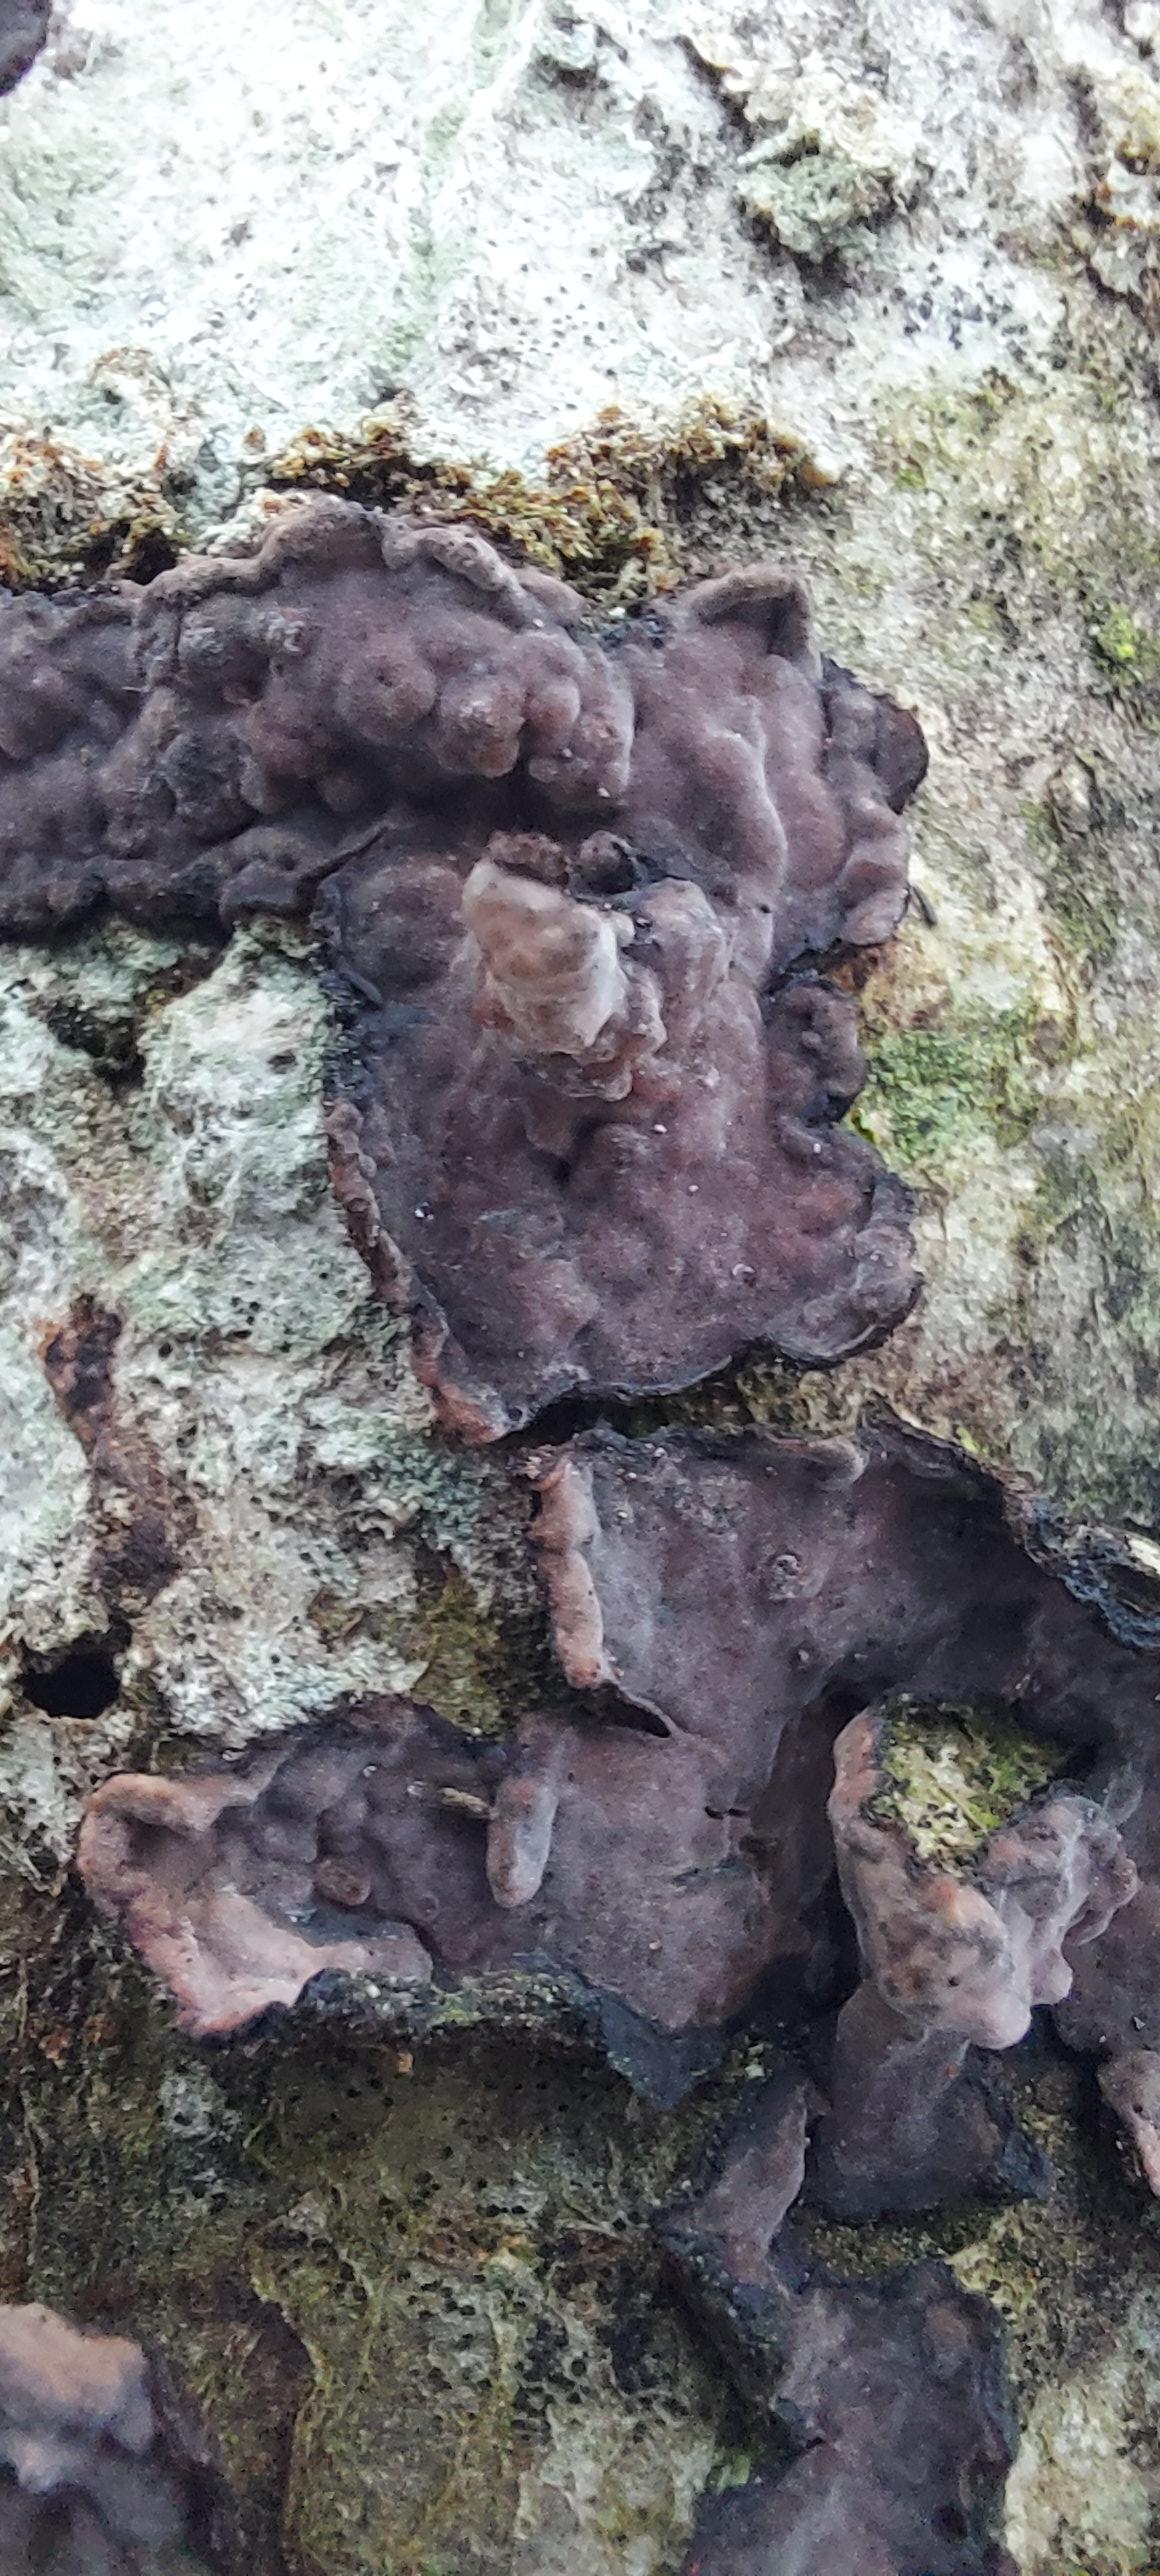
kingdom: Fungi
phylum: Basidiomycota
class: Agaricomycetes
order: Russulales
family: Peniophoraceae
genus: Peniophora
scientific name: Peniophora quercina
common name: ege-voksskind
